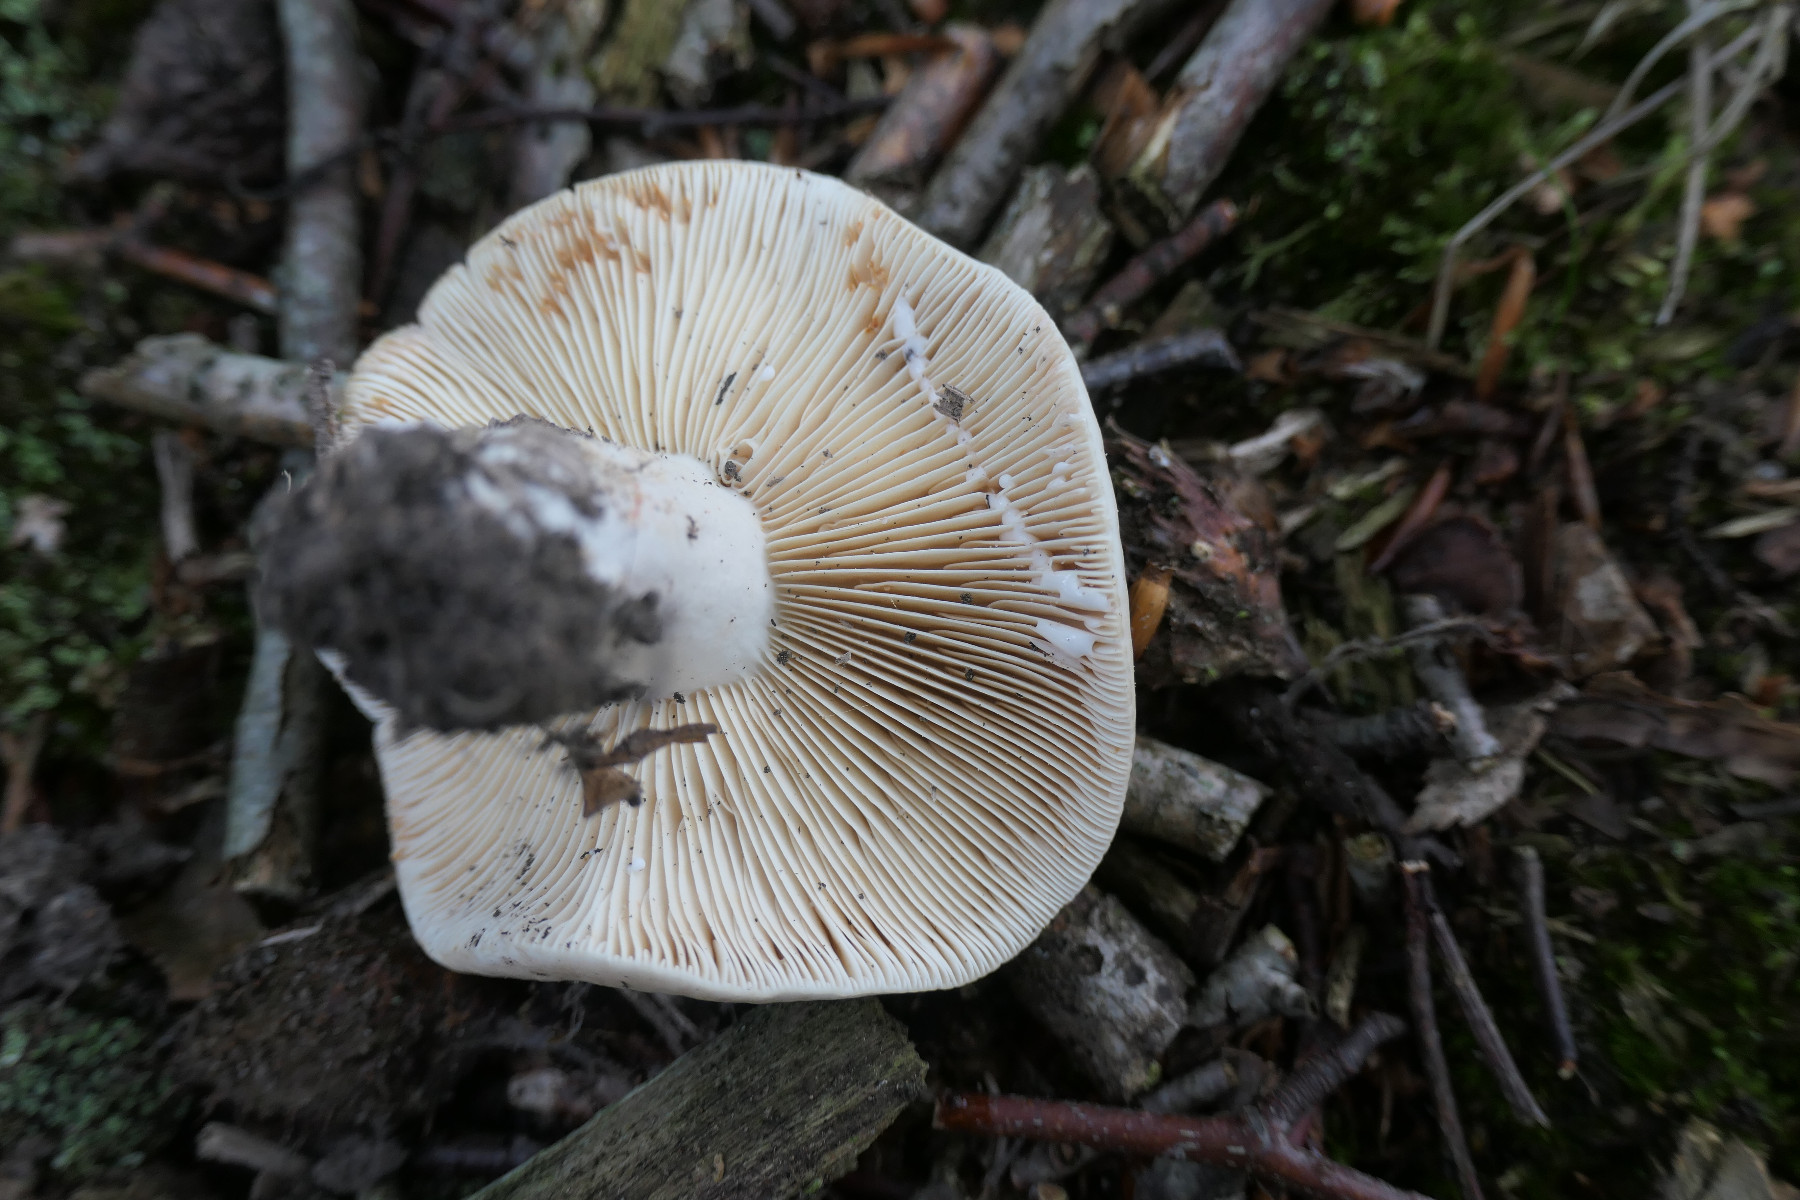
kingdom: Fungi
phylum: Basidiomycota
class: Agaricomycetes
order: Russulales
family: Russulaceae
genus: Lactarius
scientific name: Lactarius azonites
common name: røggrå mælkehat
